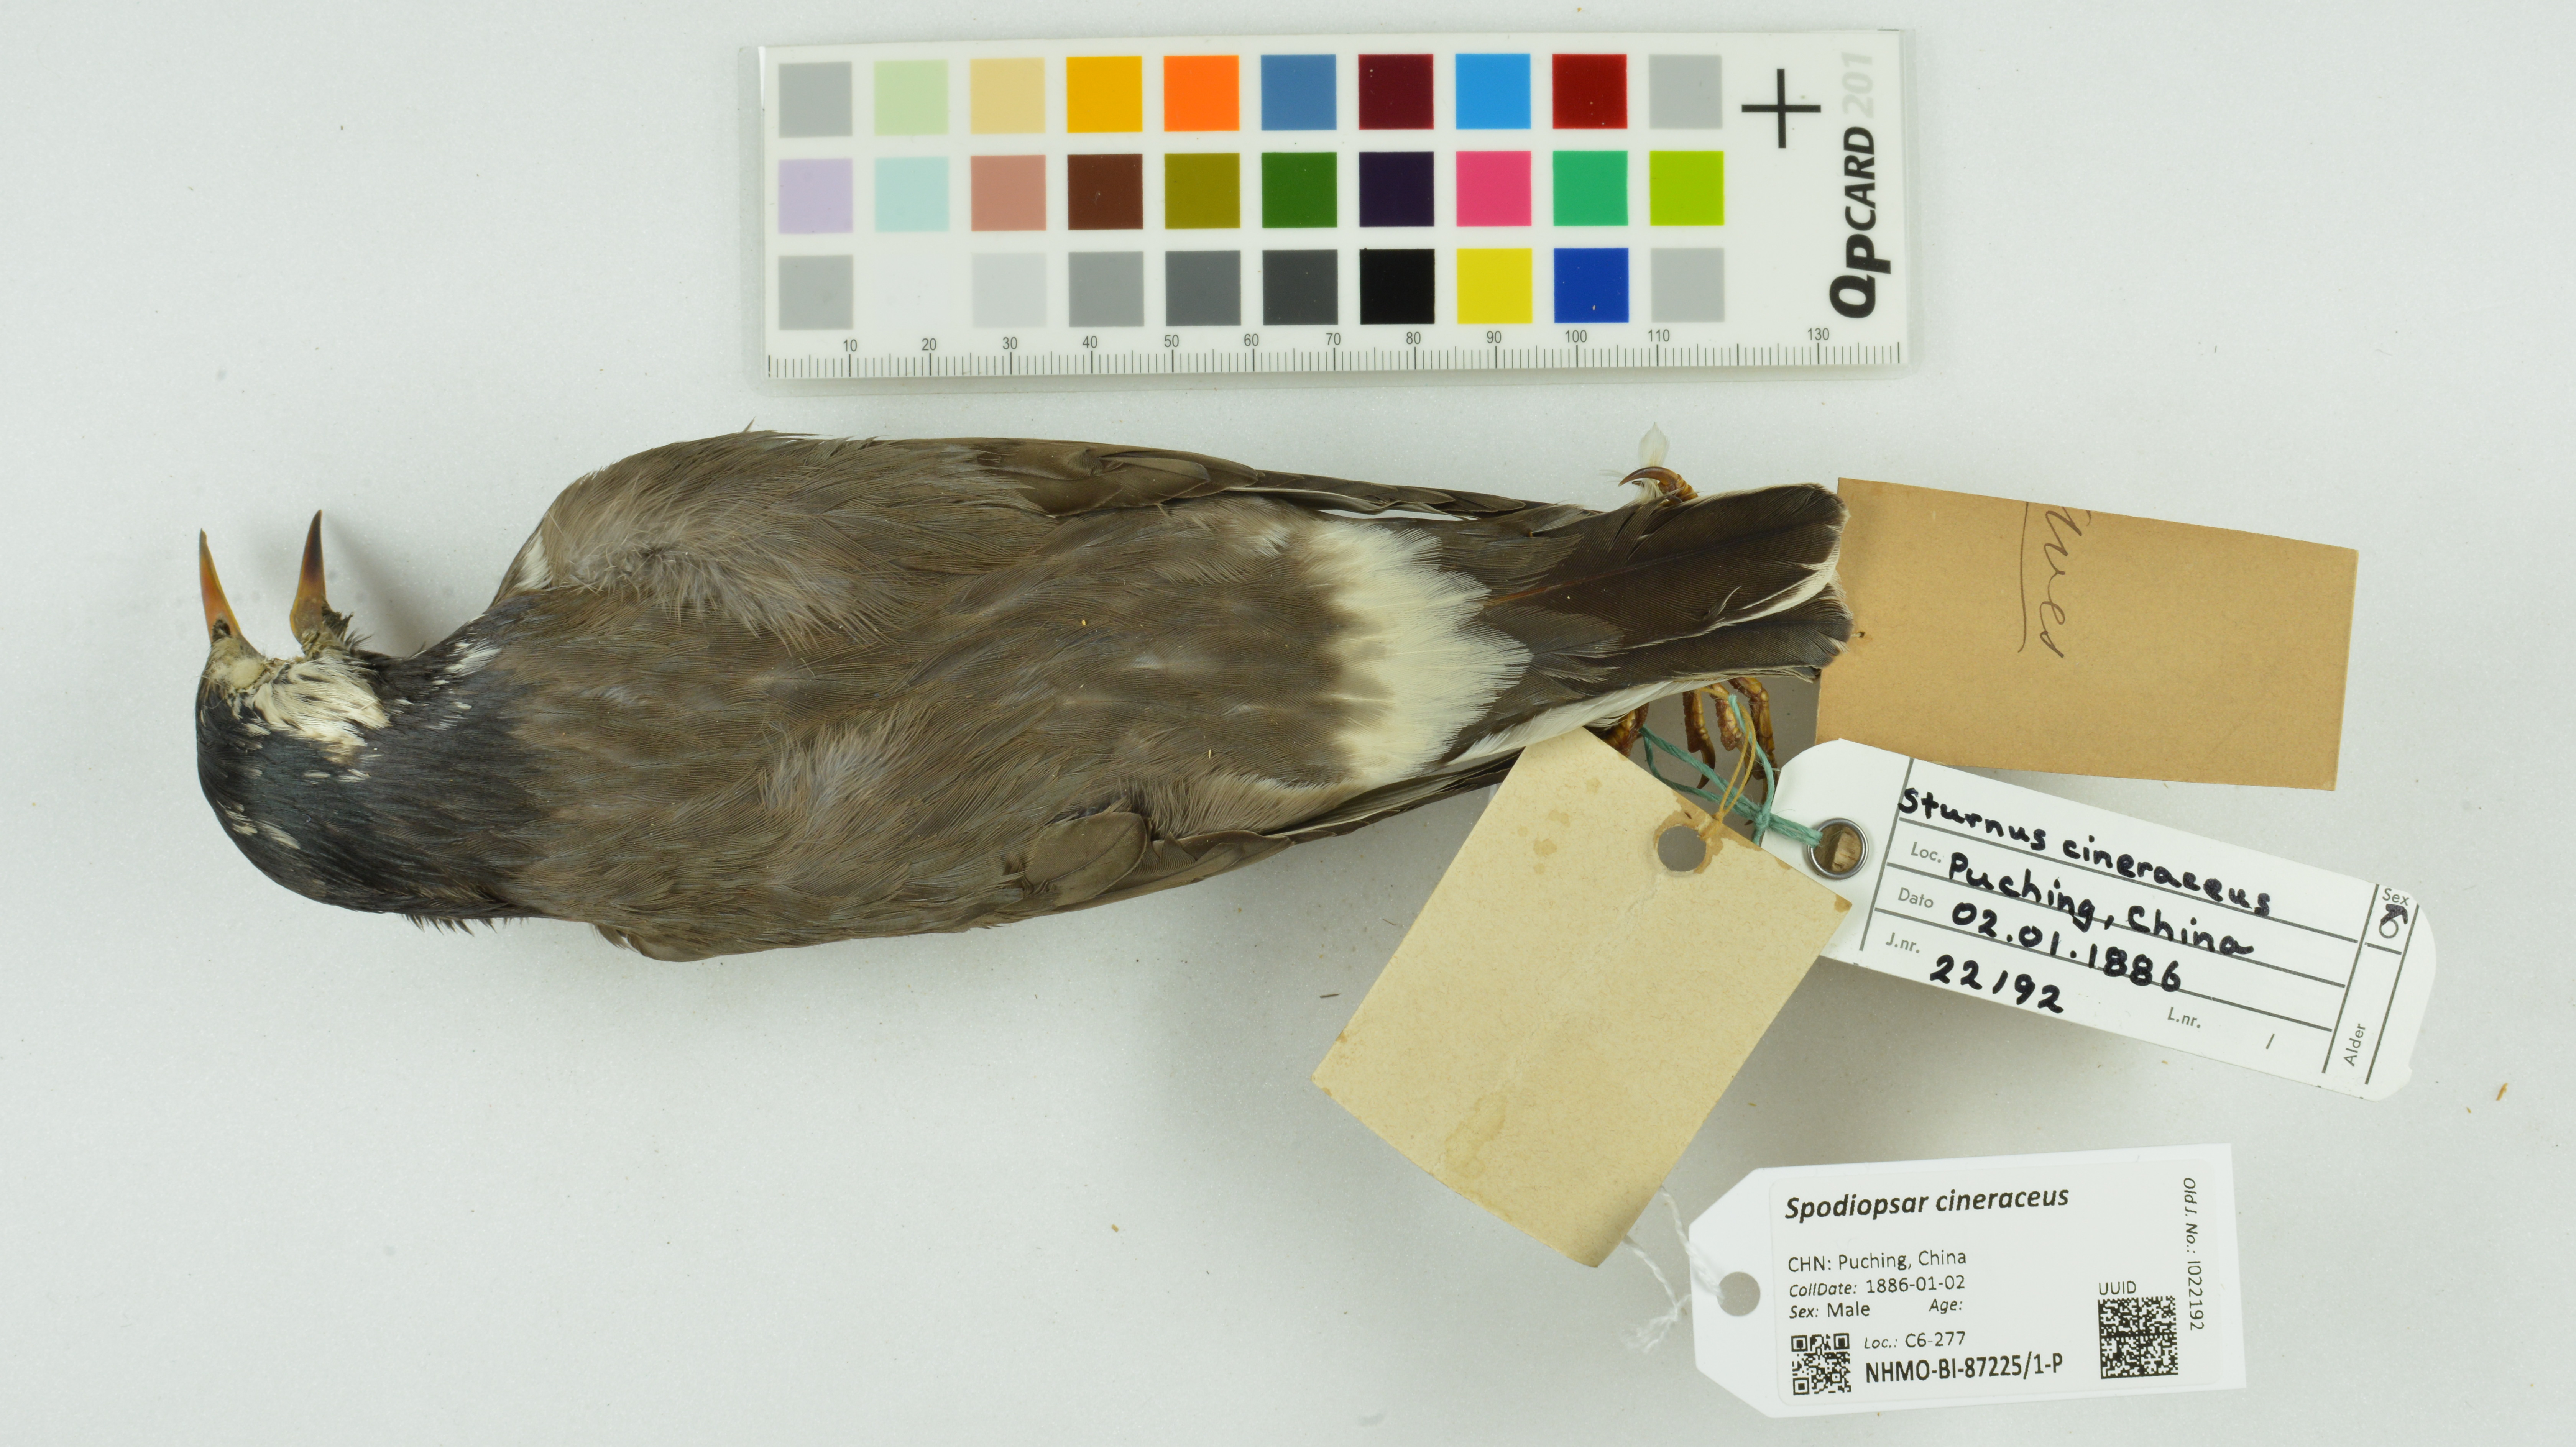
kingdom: Animalia
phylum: Chordata
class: Aves
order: Passeriformes
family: Sturnidae
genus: Spodiopsar
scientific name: Spodiopsar cineraceus
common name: White-cheeked starling
